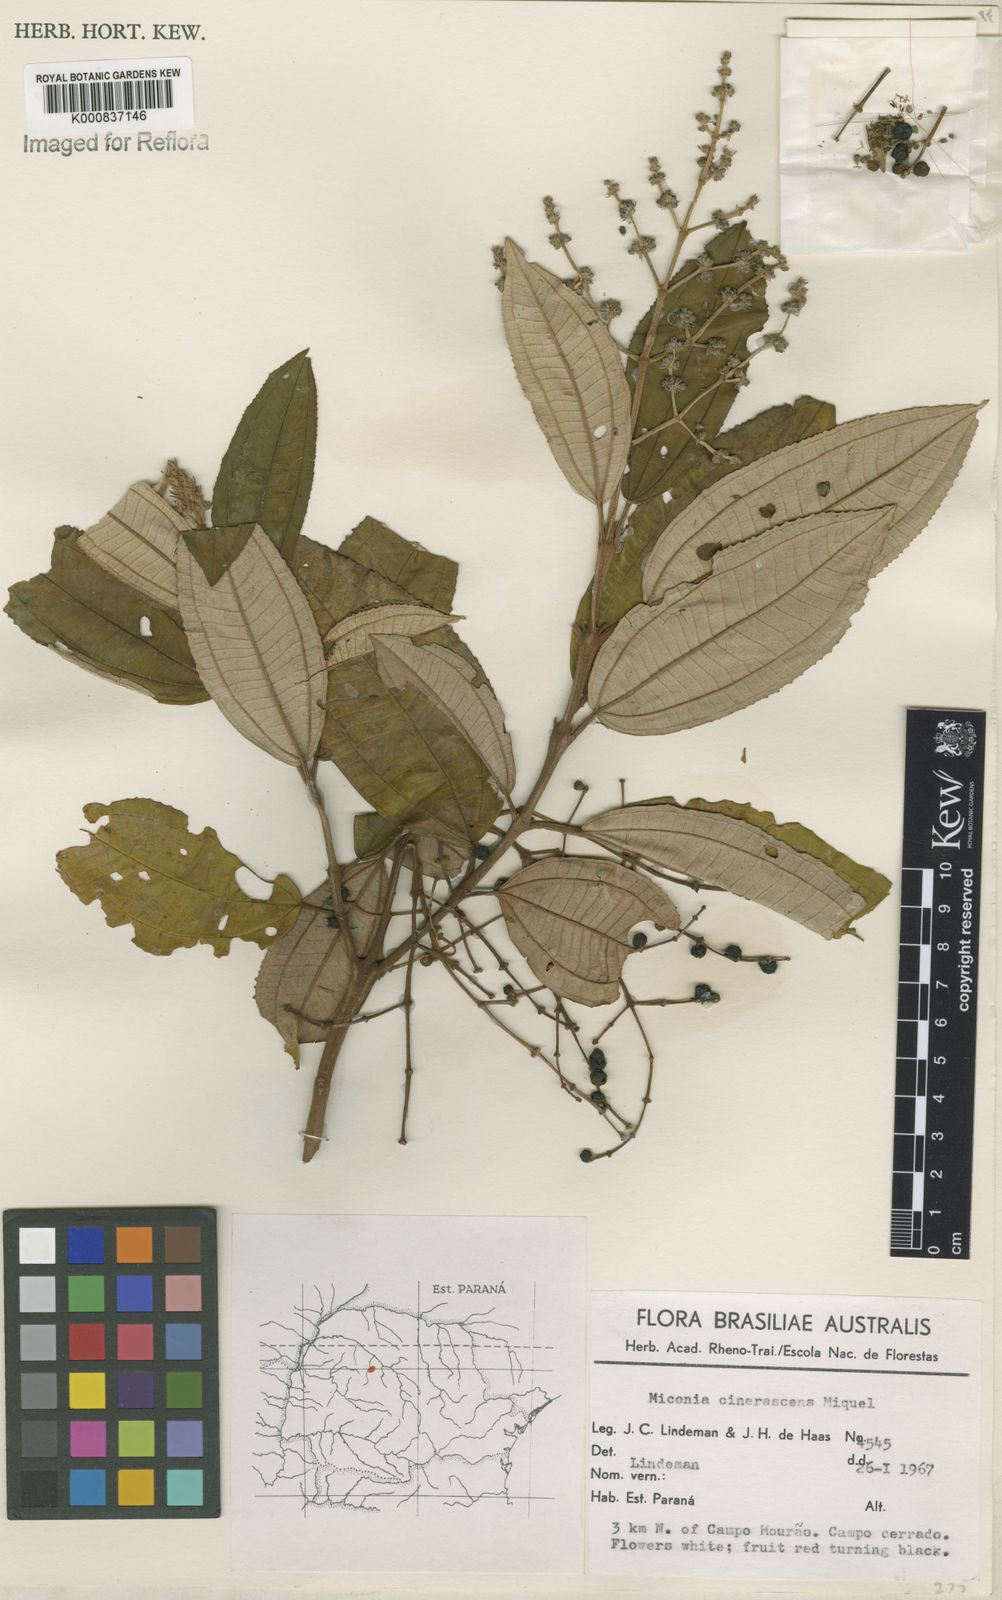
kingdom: Plantae
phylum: Tracheophyta
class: Magnoliopsida
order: Myrtales
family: Melastomataceae
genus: Miconia
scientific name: Miconia cinerascens
